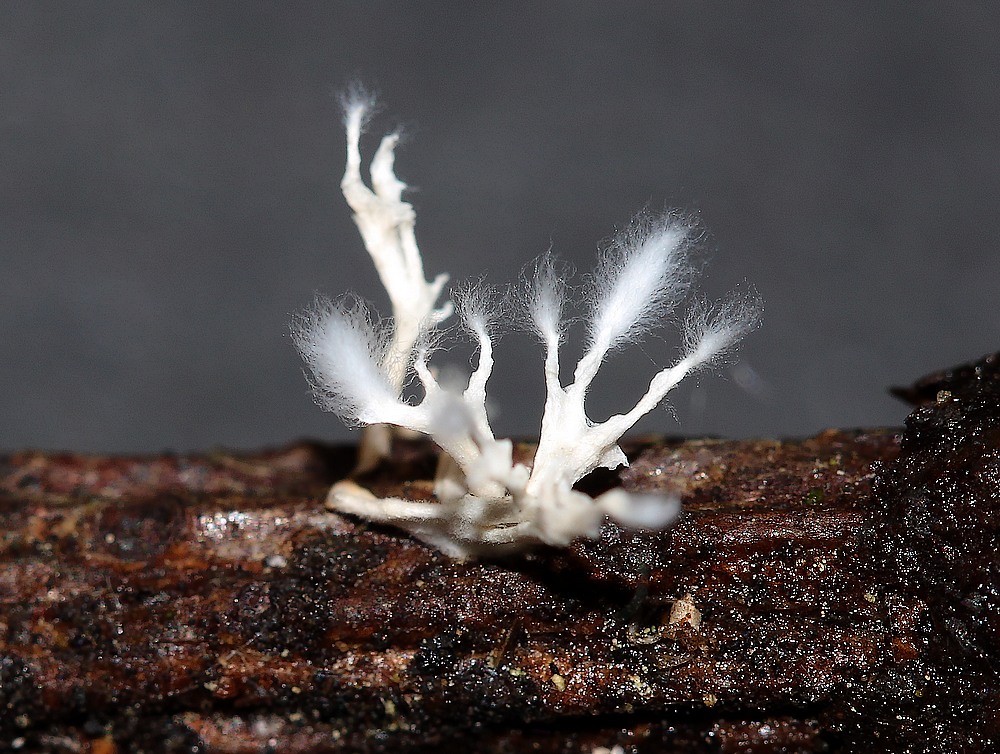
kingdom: Fungi
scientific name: Fungi
